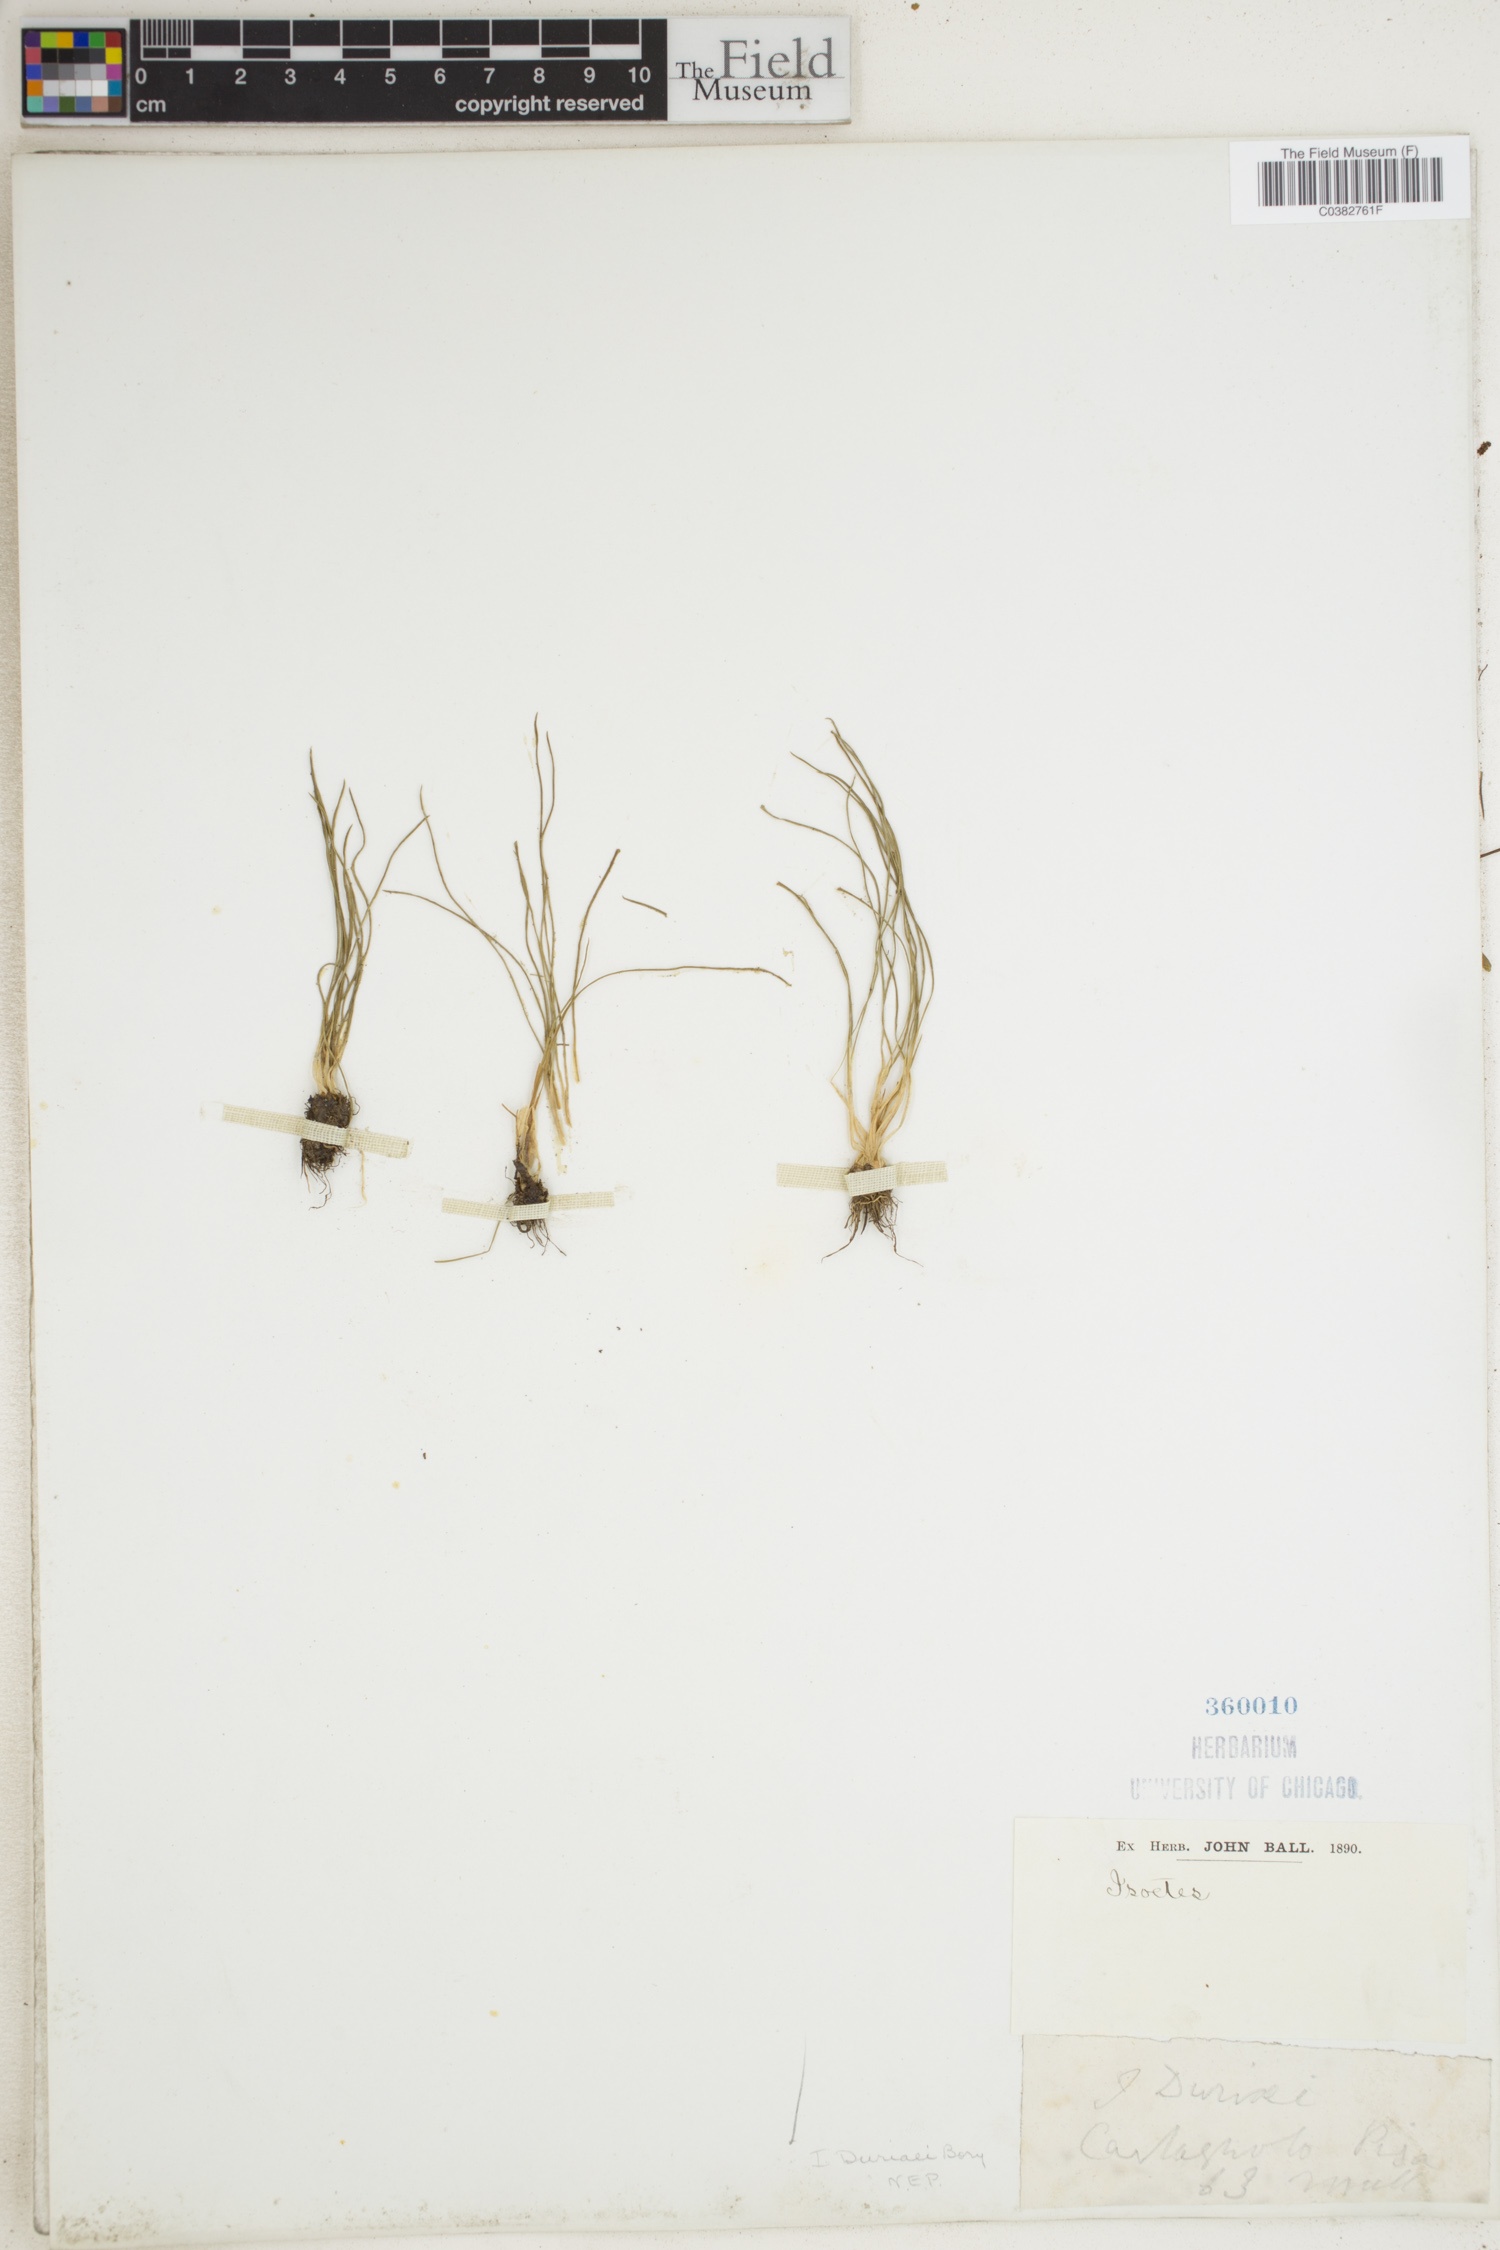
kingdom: Plantae
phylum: Tracheophyta
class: Lycopodiopsida
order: Isoetales
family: Isoetaceae
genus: Isoetes
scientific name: Isoetes duriei
